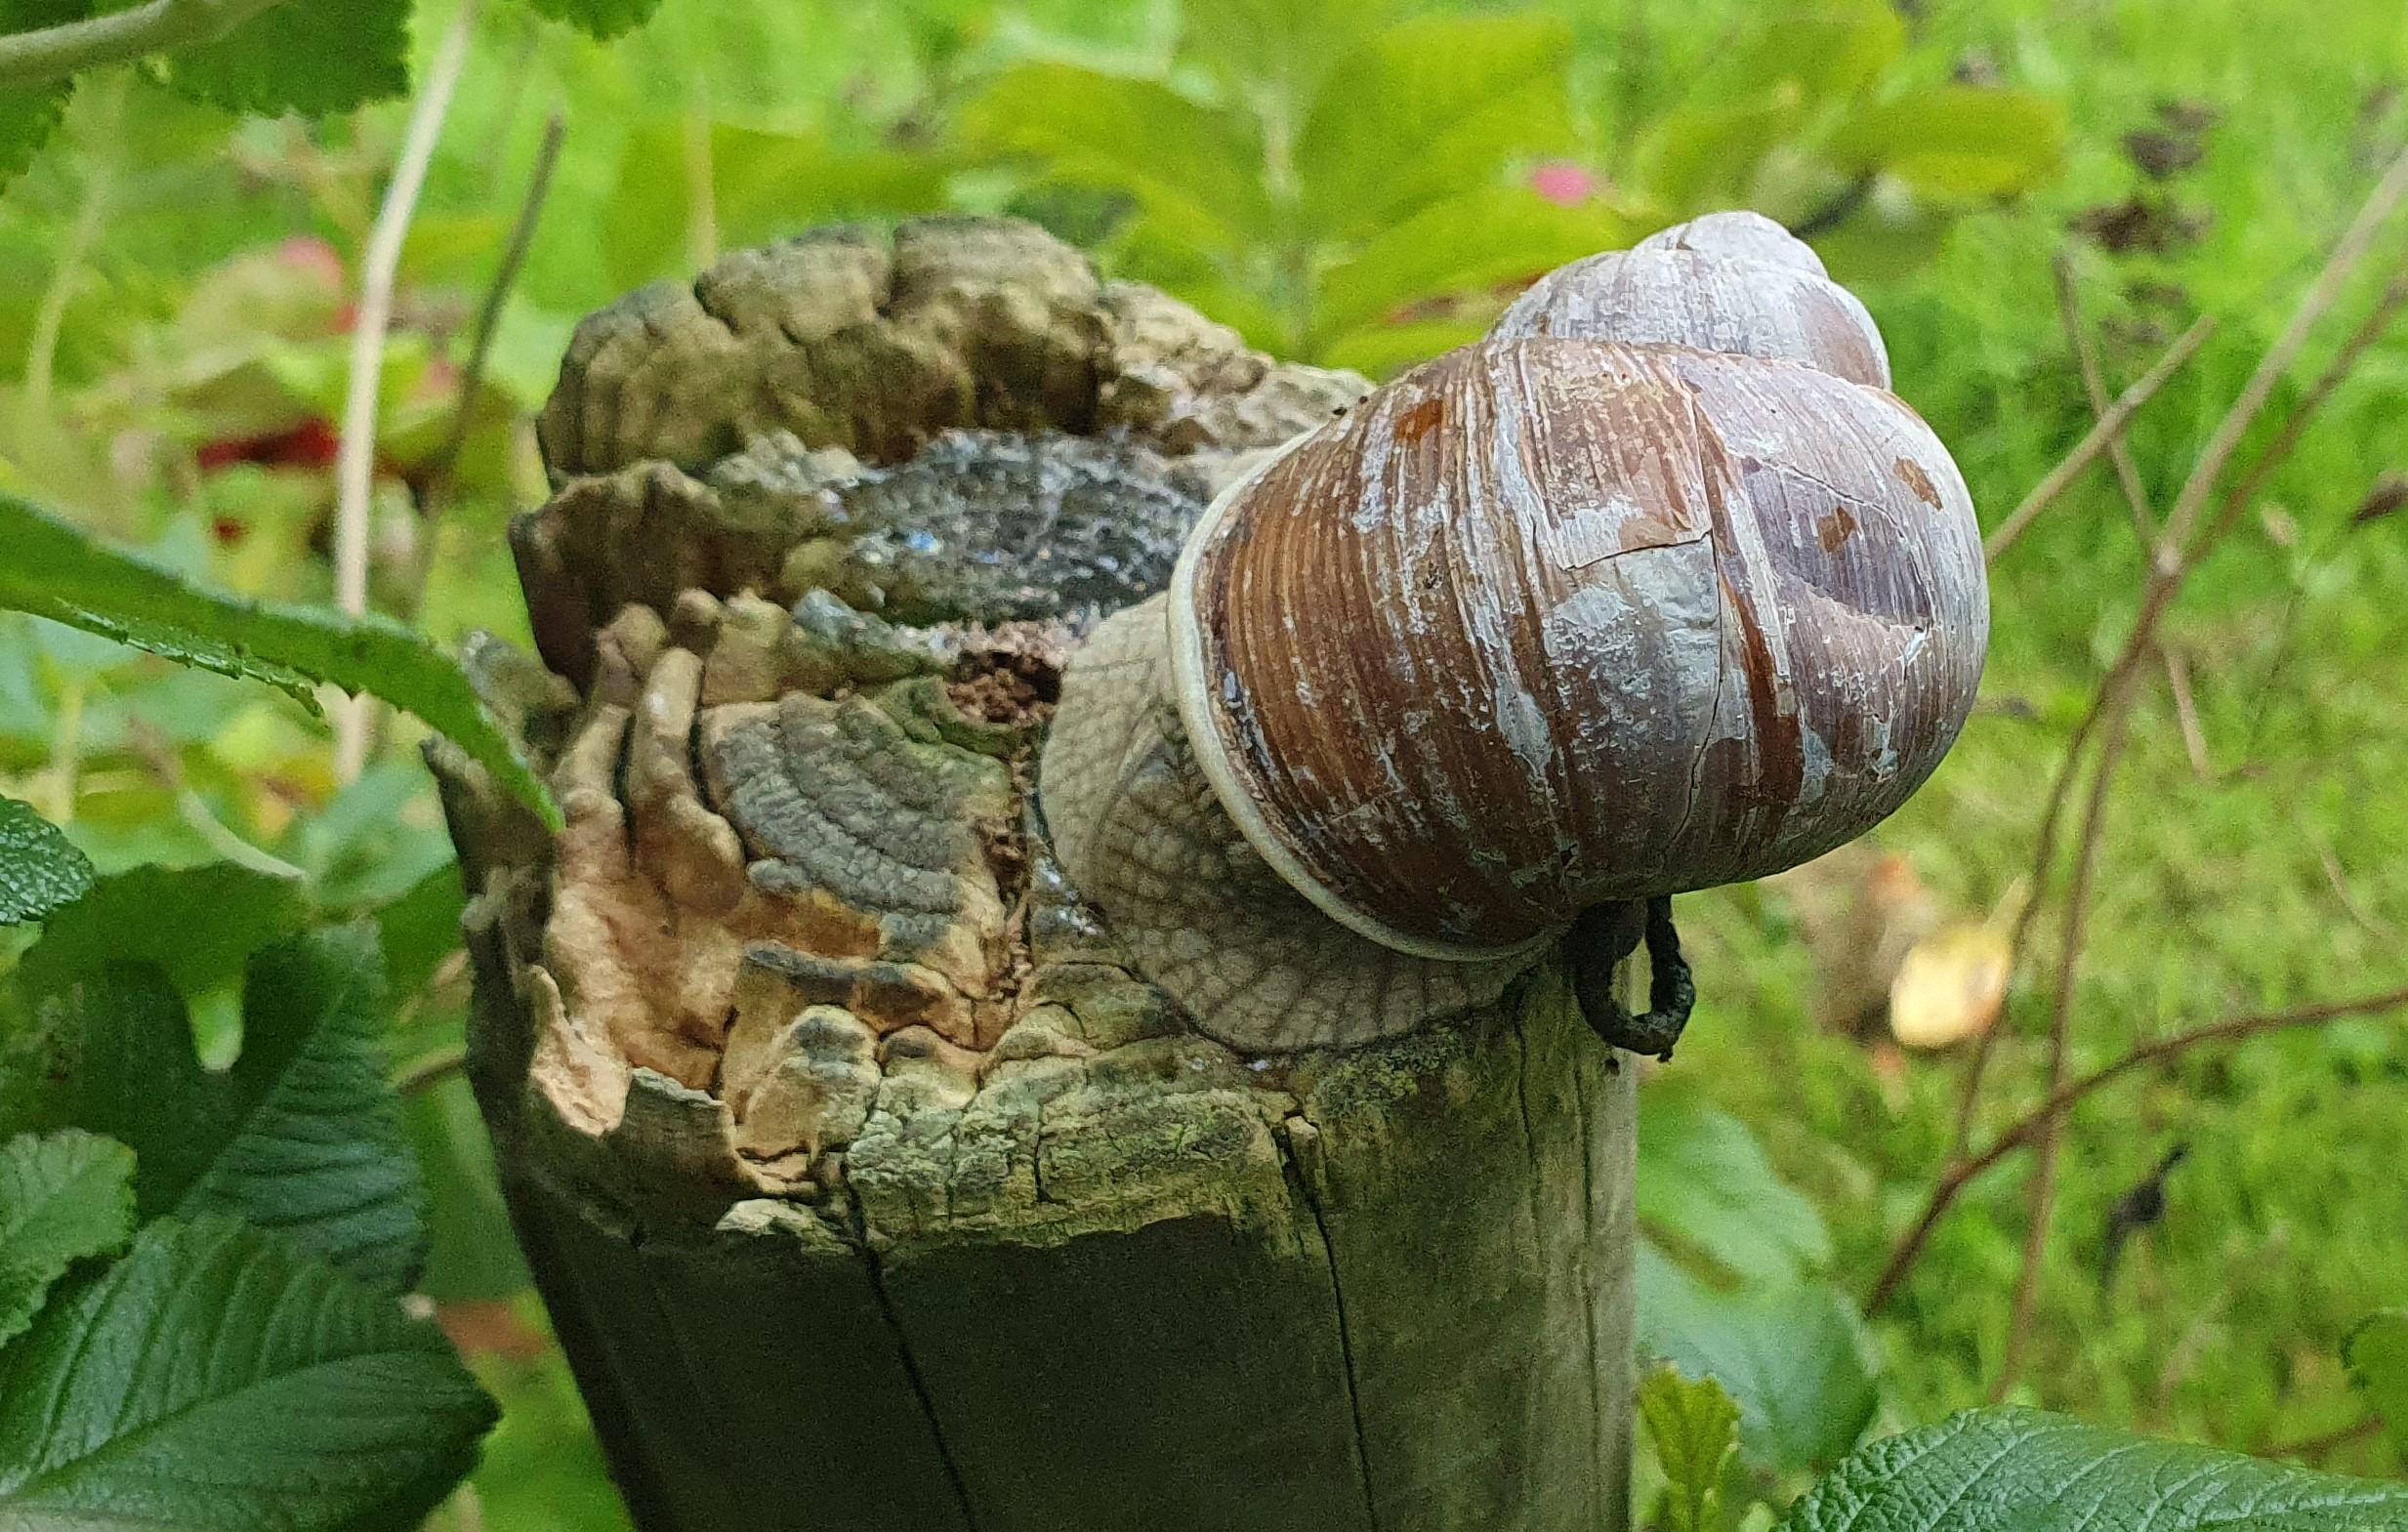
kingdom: Animalia
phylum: Mollusca
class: Gastropoda
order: Stylommatophora
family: Helicidae
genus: Helix
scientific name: Helix pomatia
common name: Vinbjergsnegl
